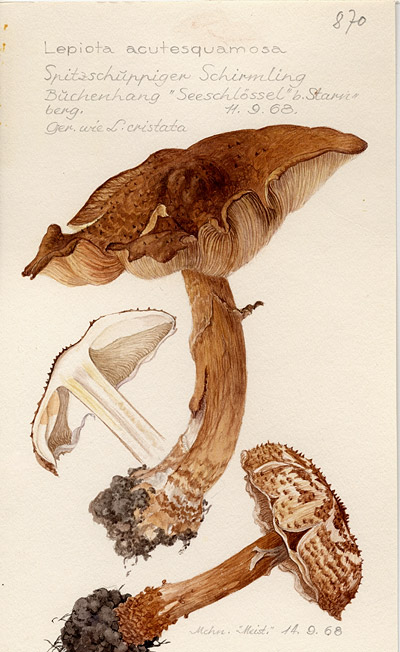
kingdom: Fungi
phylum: Basidiomycota
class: Agaricomycetes
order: Agaricales
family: Agaricaceae
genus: Echinoderma
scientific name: Echinoderma asperum
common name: Freckled dapperling
